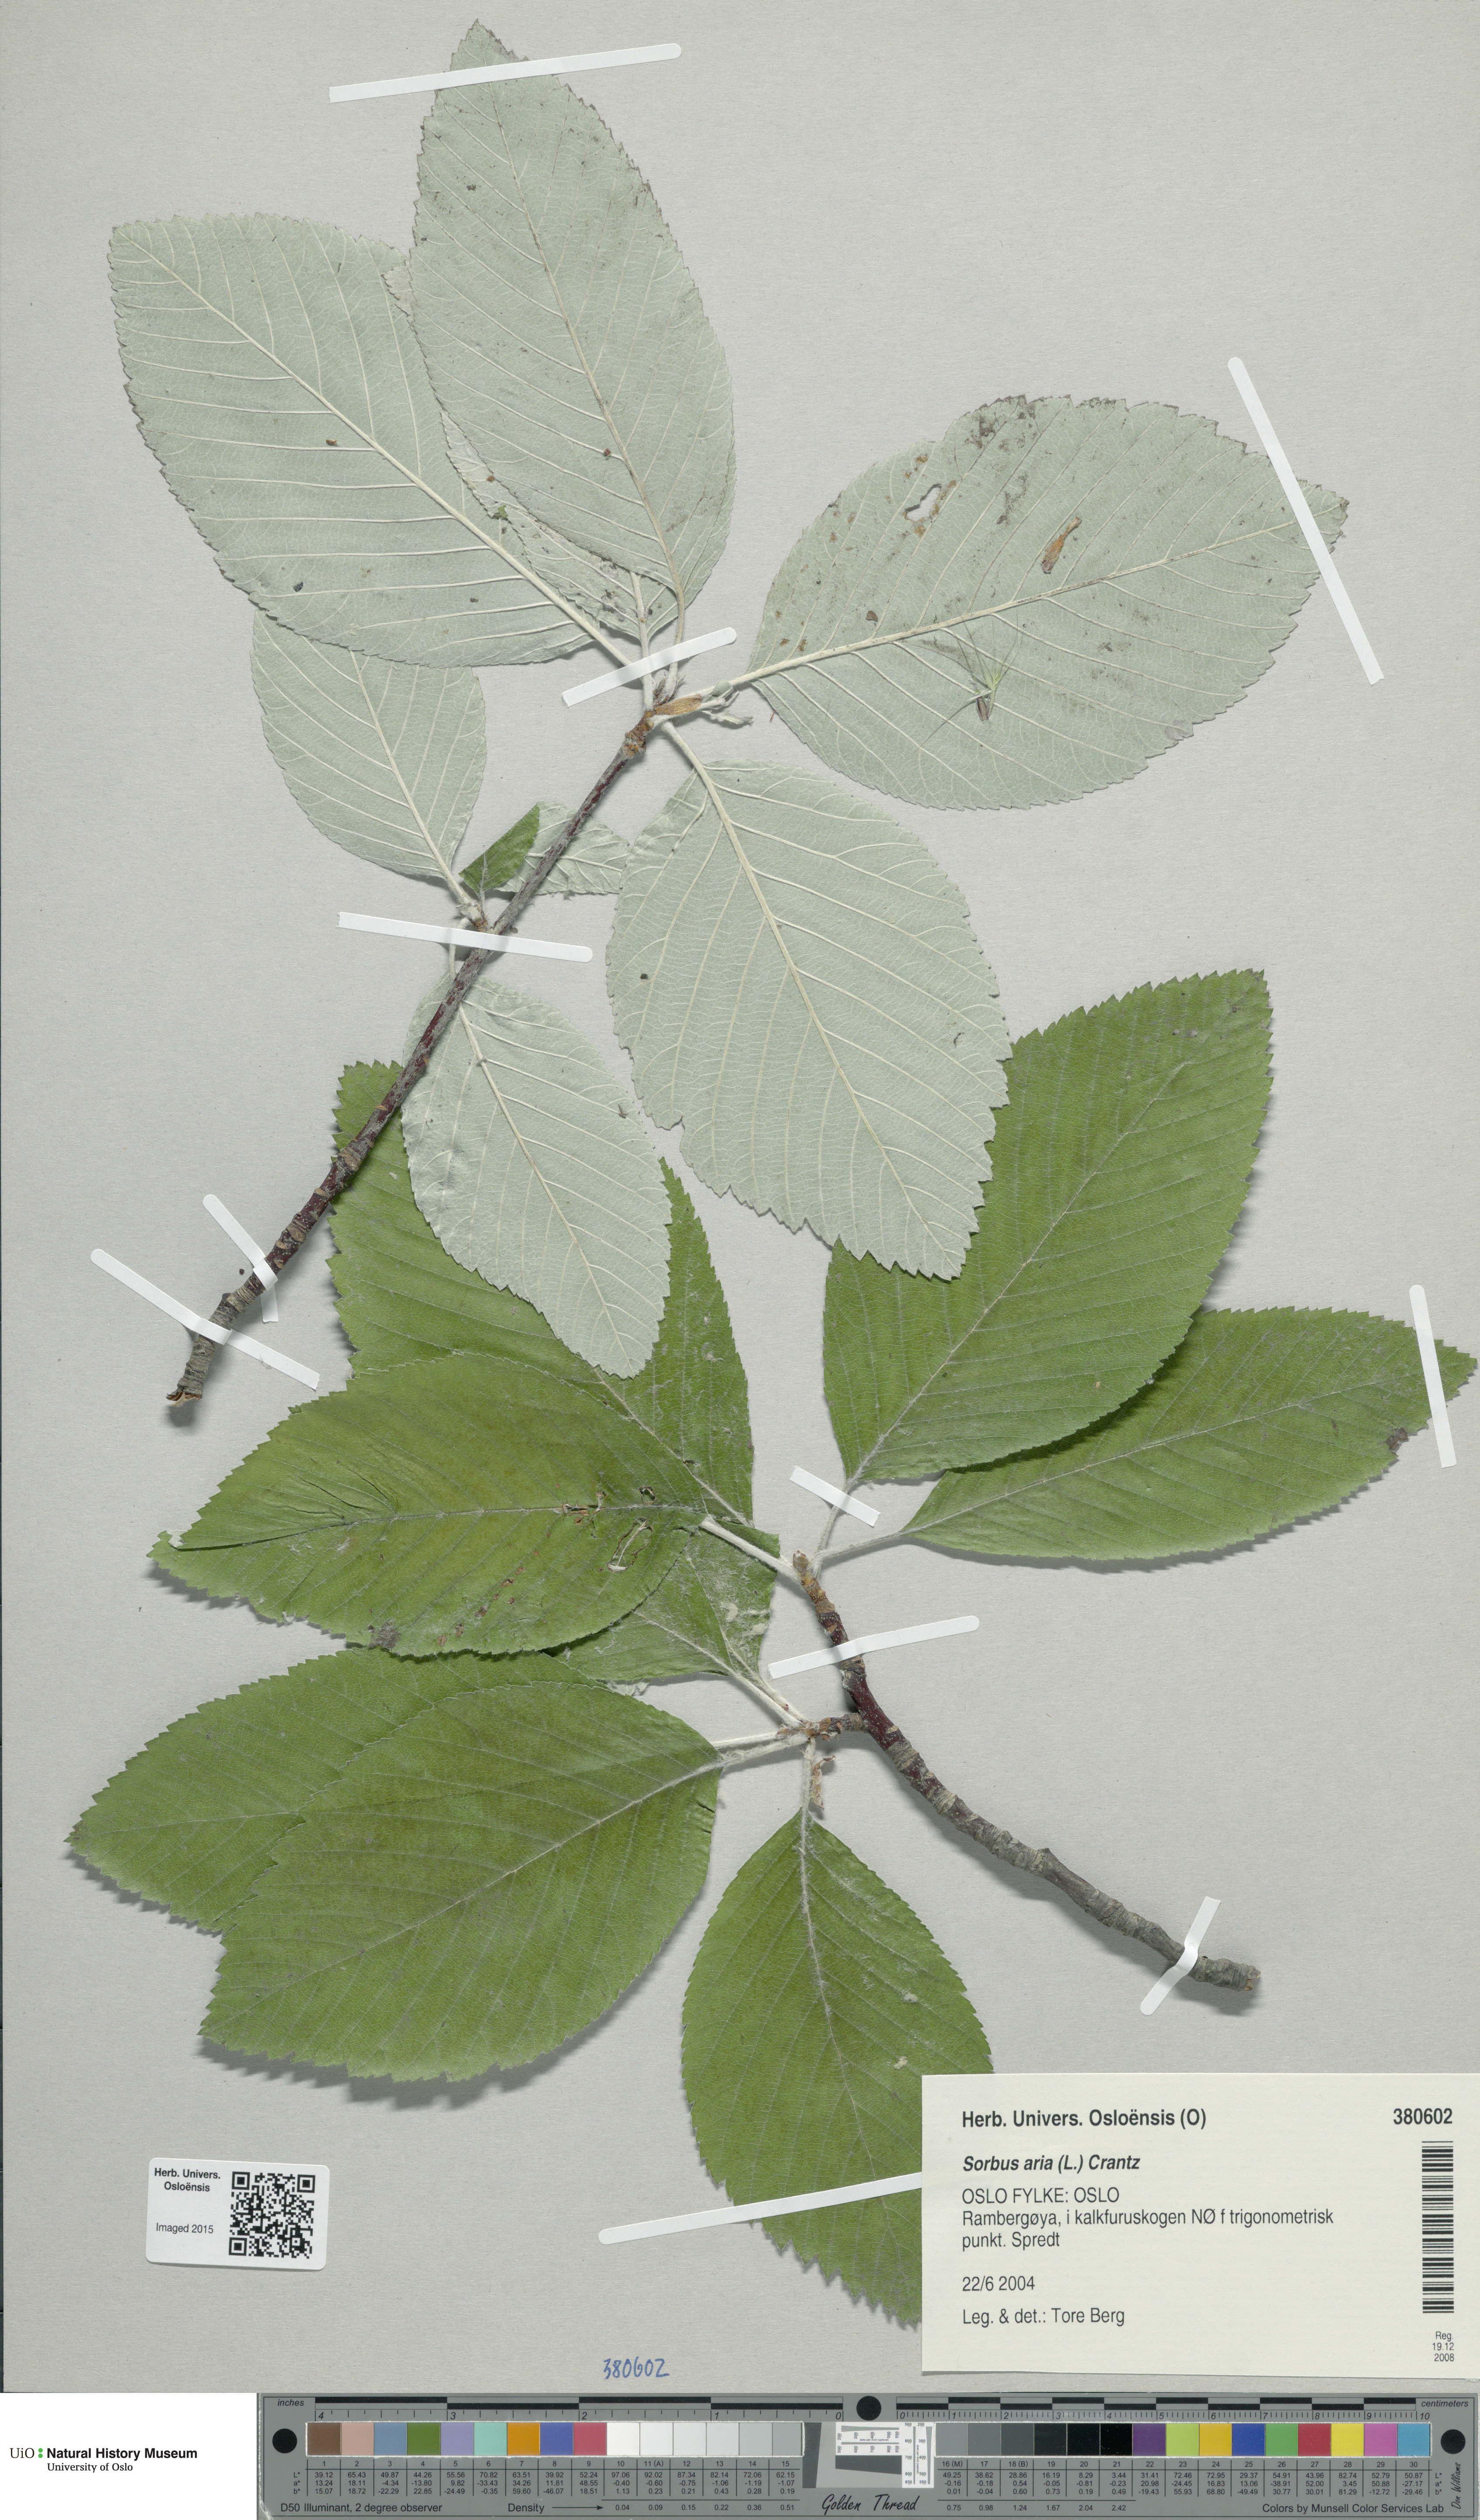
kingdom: Plantae
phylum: Tracheophyta
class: Magnoliopsida
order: Rosales
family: Rosaceae
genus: Aria
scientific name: Aria edulis
